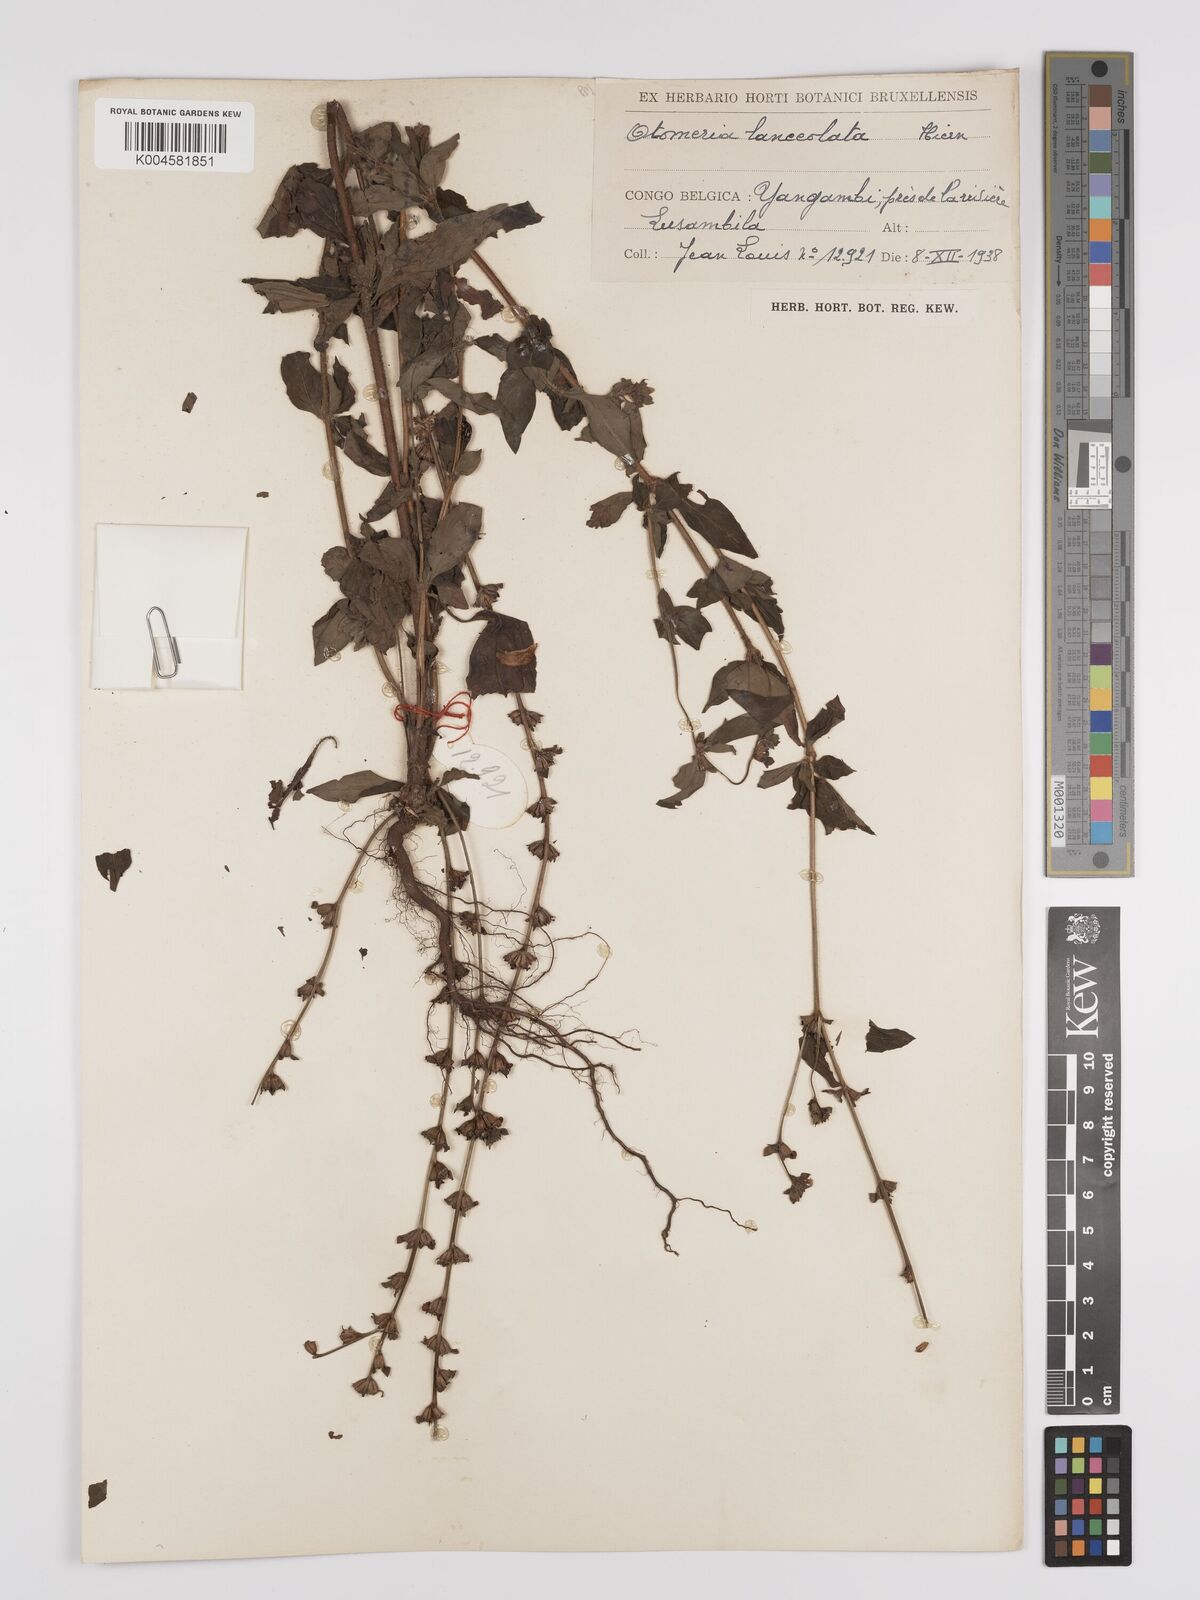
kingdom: Plantae
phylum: Tracheophyta
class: Magnoliopsida
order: Gentianales
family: Rubiaceae
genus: Otomeria
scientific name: Otomeria micrantha
